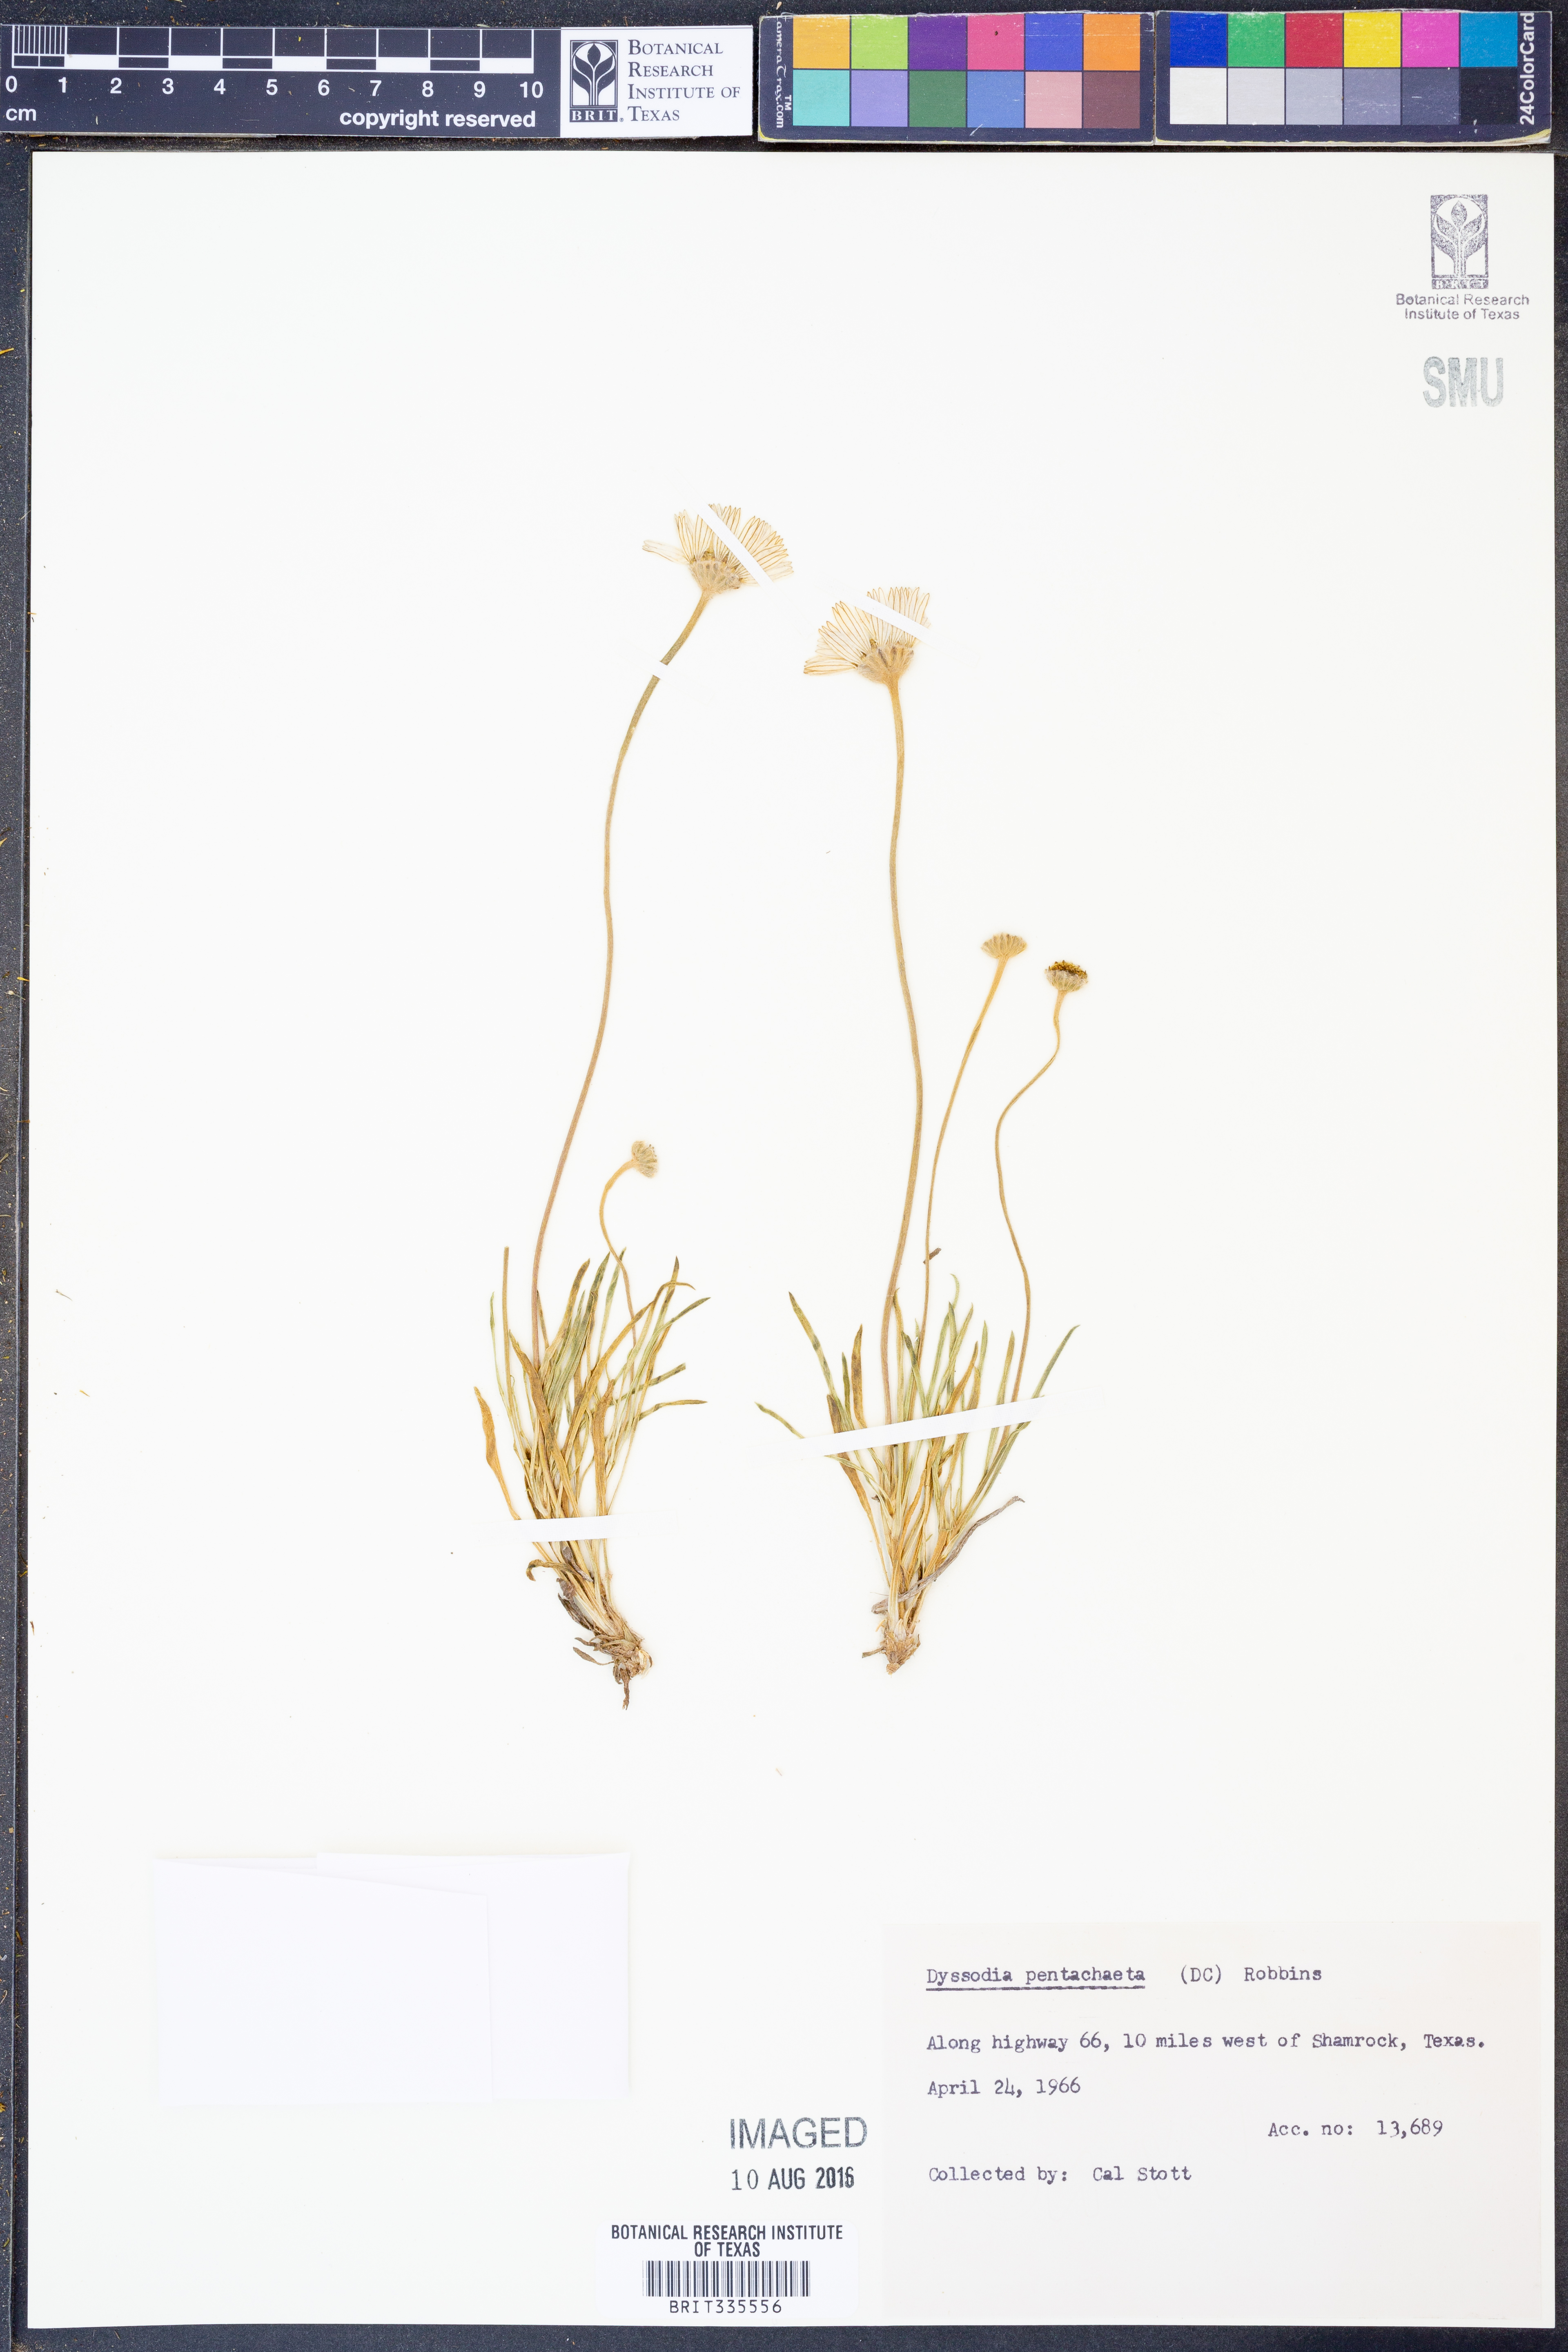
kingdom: Plantae
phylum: Tracheophyta
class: Magnoliopsida
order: Asterales
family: Asteraceae
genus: Thymophylla
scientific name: Thymophylla pentachaeta
